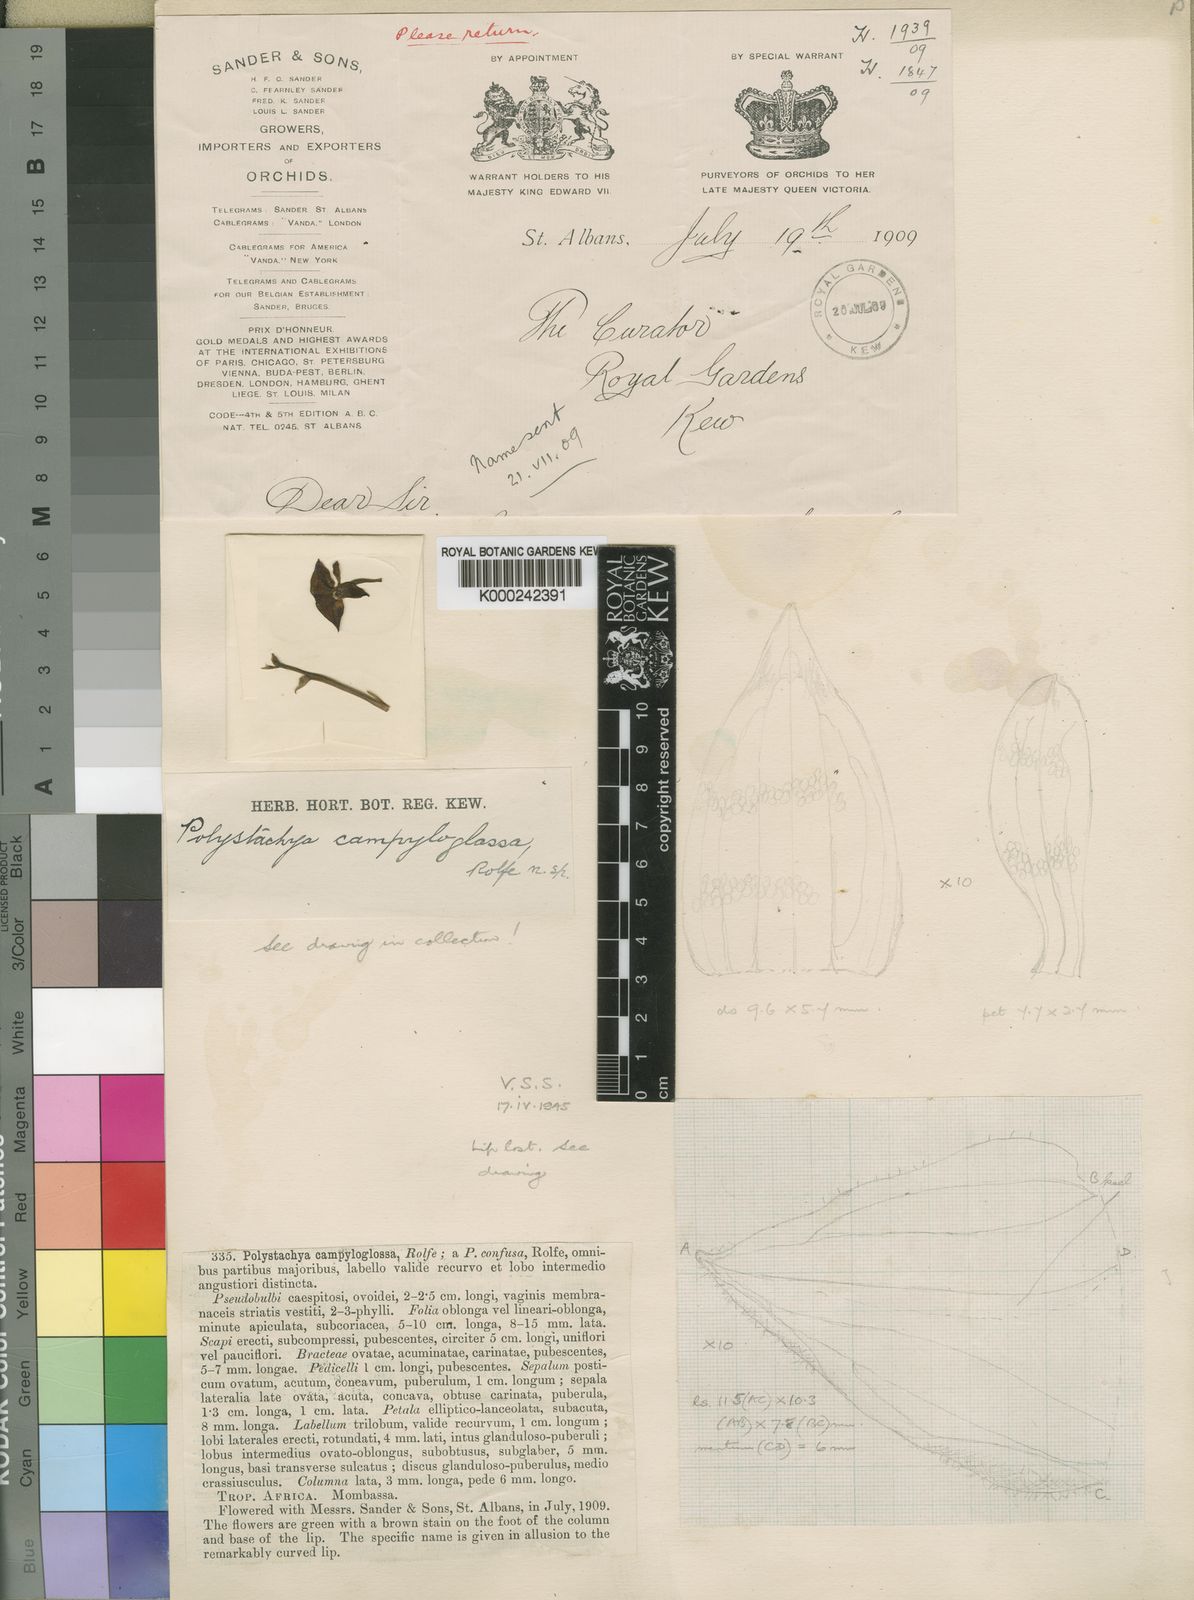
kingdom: Plantae
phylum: Tracheophyta
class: Liliopsida
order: Asparagales
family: Orchidaceae
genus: Polystachya
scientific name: Polystachya campyloglossa
